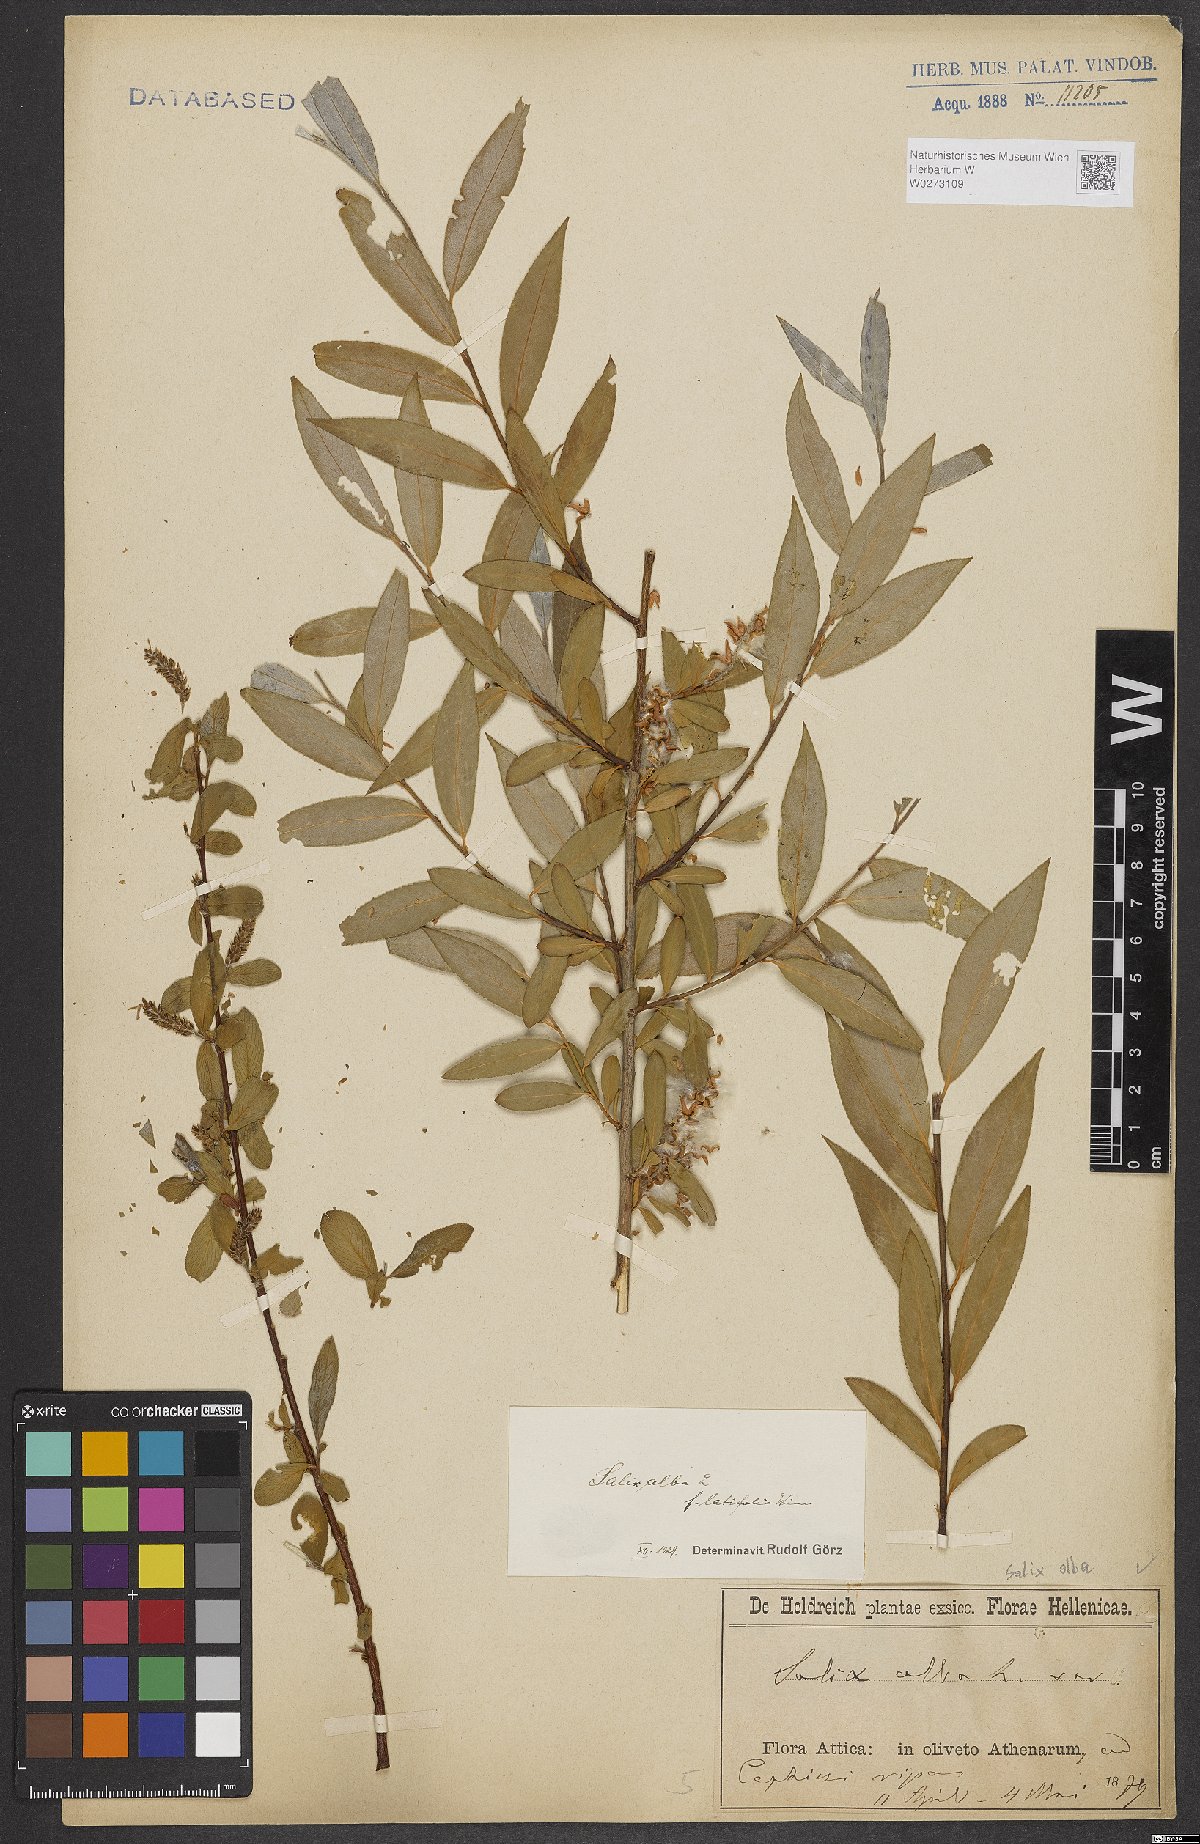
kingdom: Plantae
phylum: Tracheophyta
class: Magnoliopsida
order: Malpighiales
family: Salicaceae
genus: Salix
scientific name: Salix alba
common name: White willow
